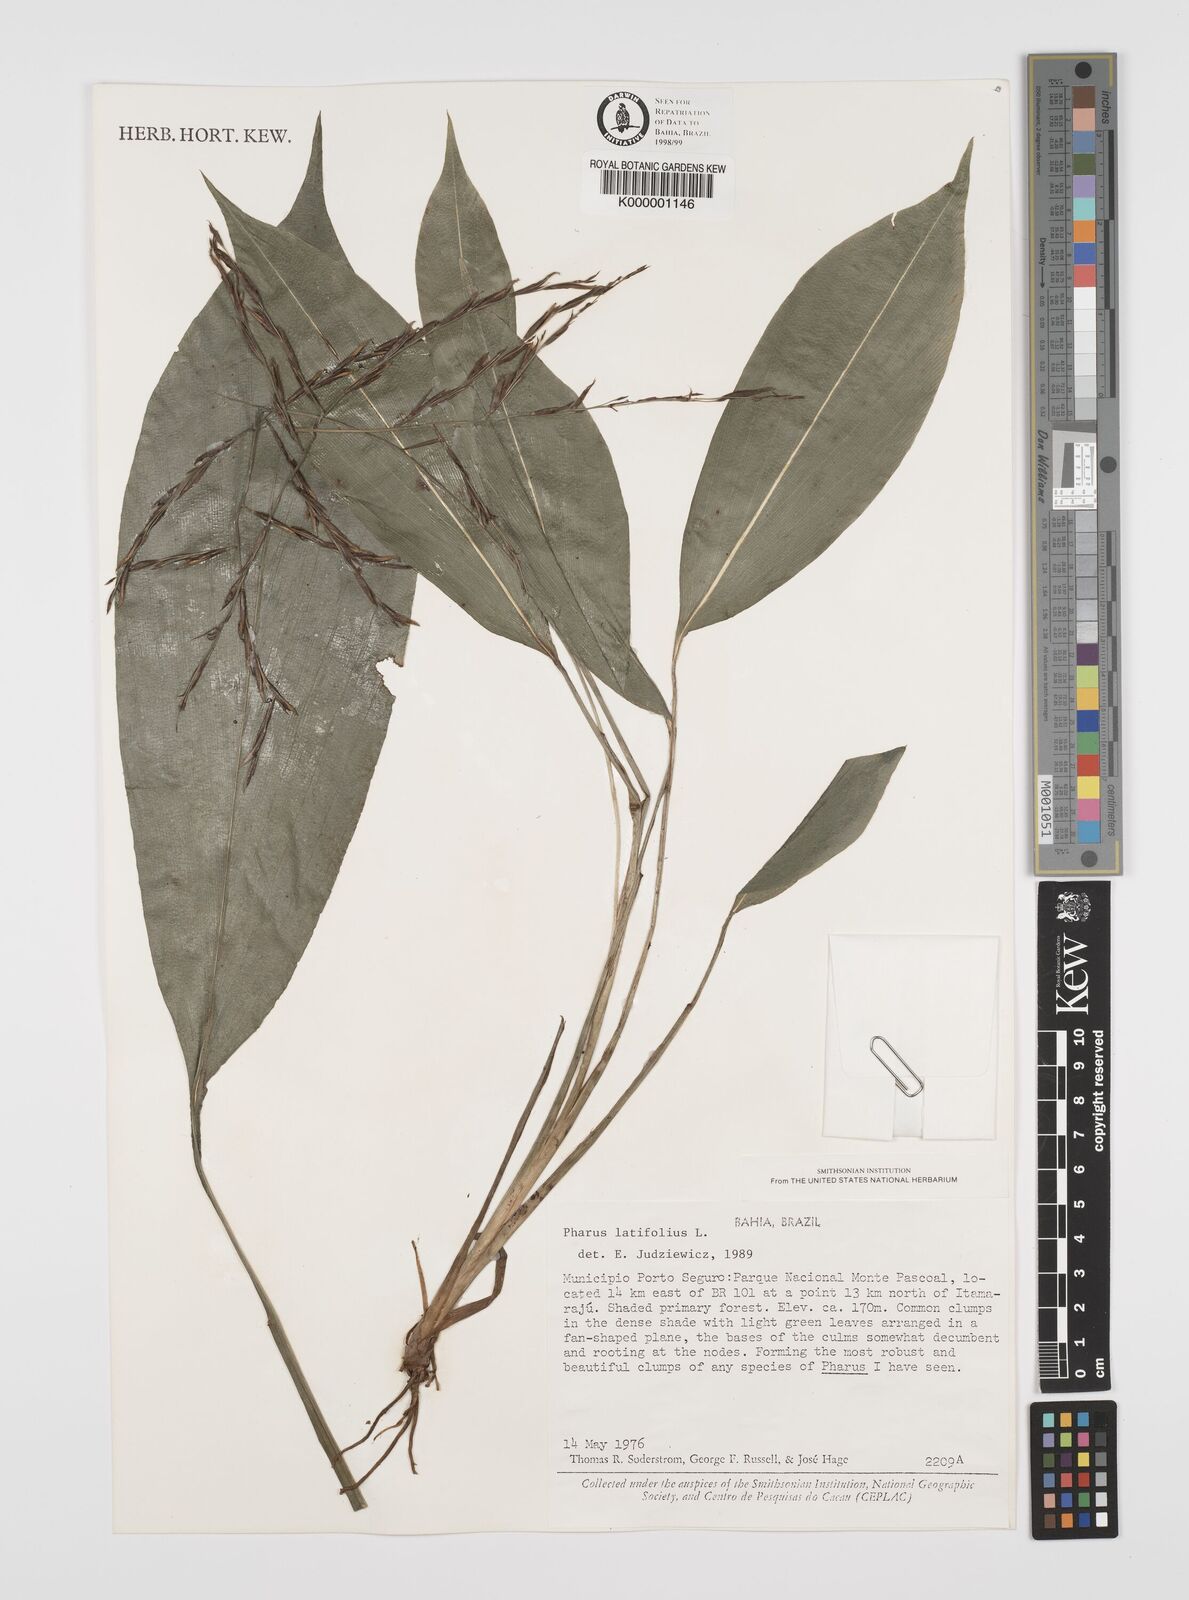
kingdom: Plantae
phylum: Tracheophyta
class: Liliopsida
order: Poales
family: Poaceae
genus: Pharus
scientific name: Pharus latifolius
